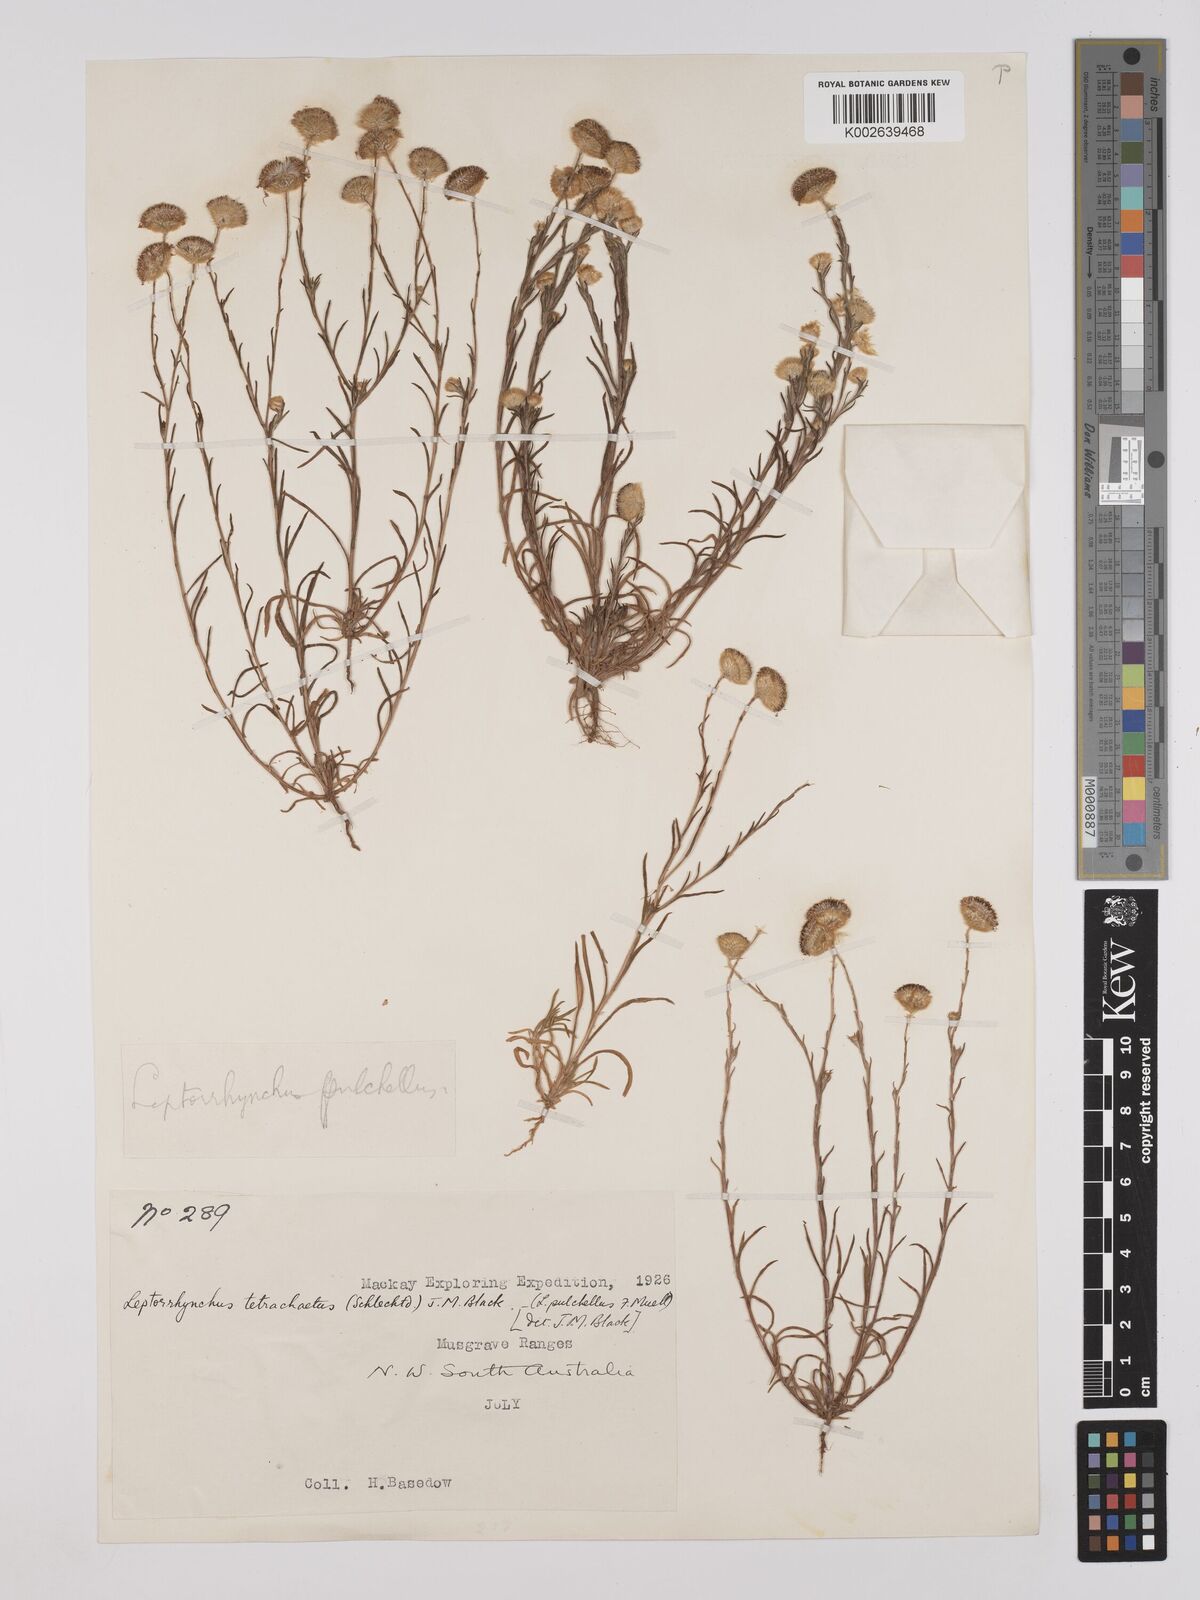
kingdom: Plantae
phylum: Tracheophyta
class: Magnoliopsida
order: Asterales
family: Asteraceae
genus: Leptorhynchos
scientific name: Leptorhynchos tetrachaetus
